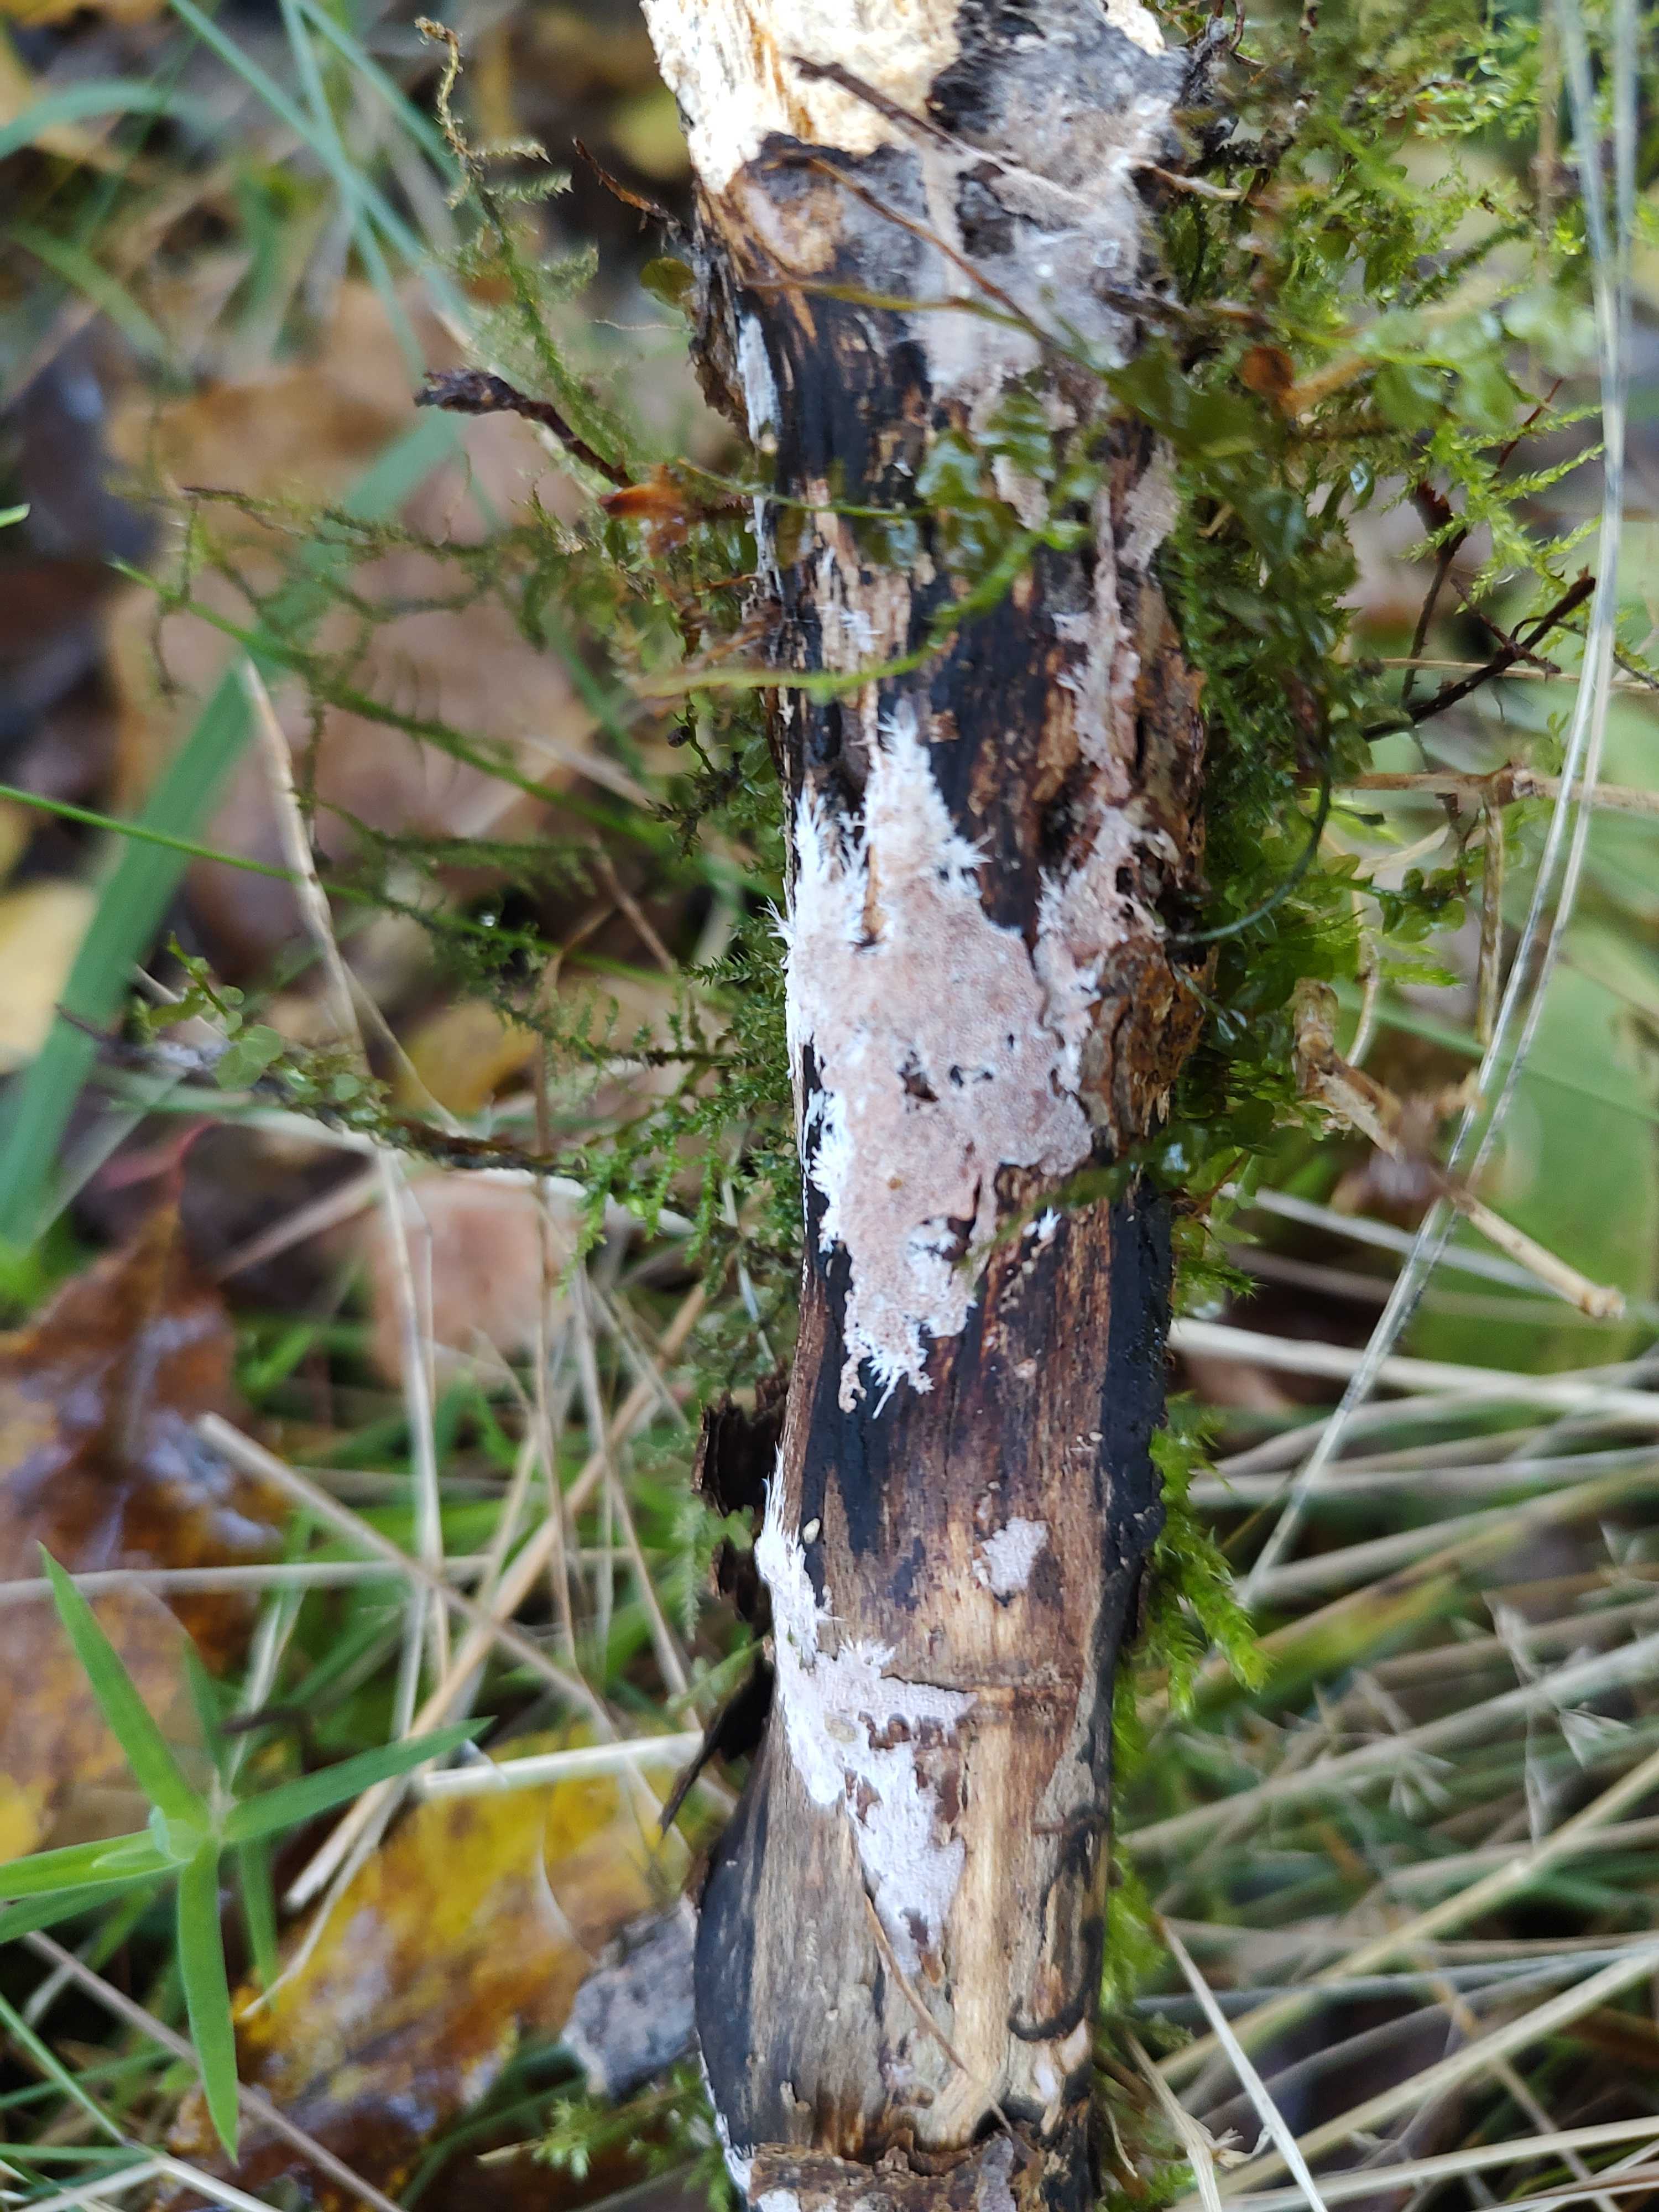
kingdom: Fungi
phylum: Basidiomycota
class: Agaricomycetes
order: Polyporales
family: Steccherinaceae
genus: Steccherinum
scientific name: Steccherinum fimbriatum
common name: trådet skønpig
